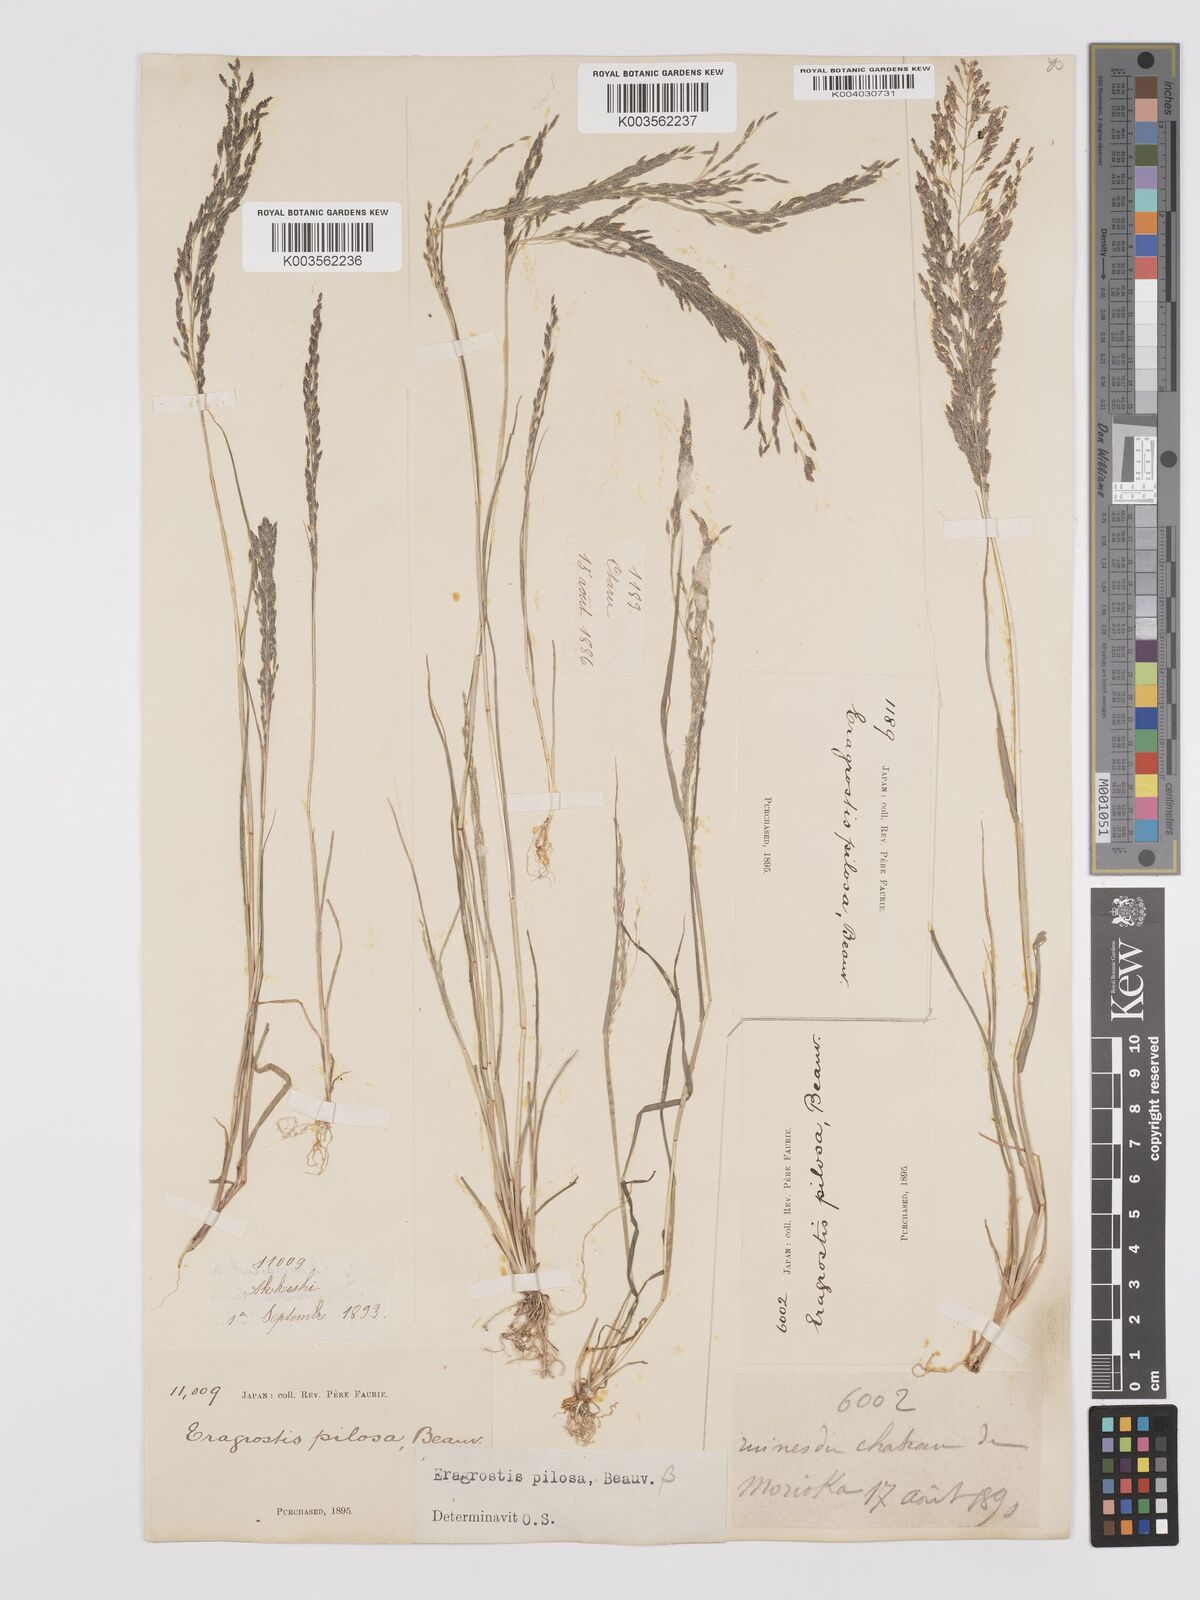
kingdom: Plantae
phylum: Tracheophyta
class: Liliopsida
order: Poales
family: Poaceae
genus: Eragrostis
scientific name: Eragrostis pilosa
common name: Indian lovegrass
